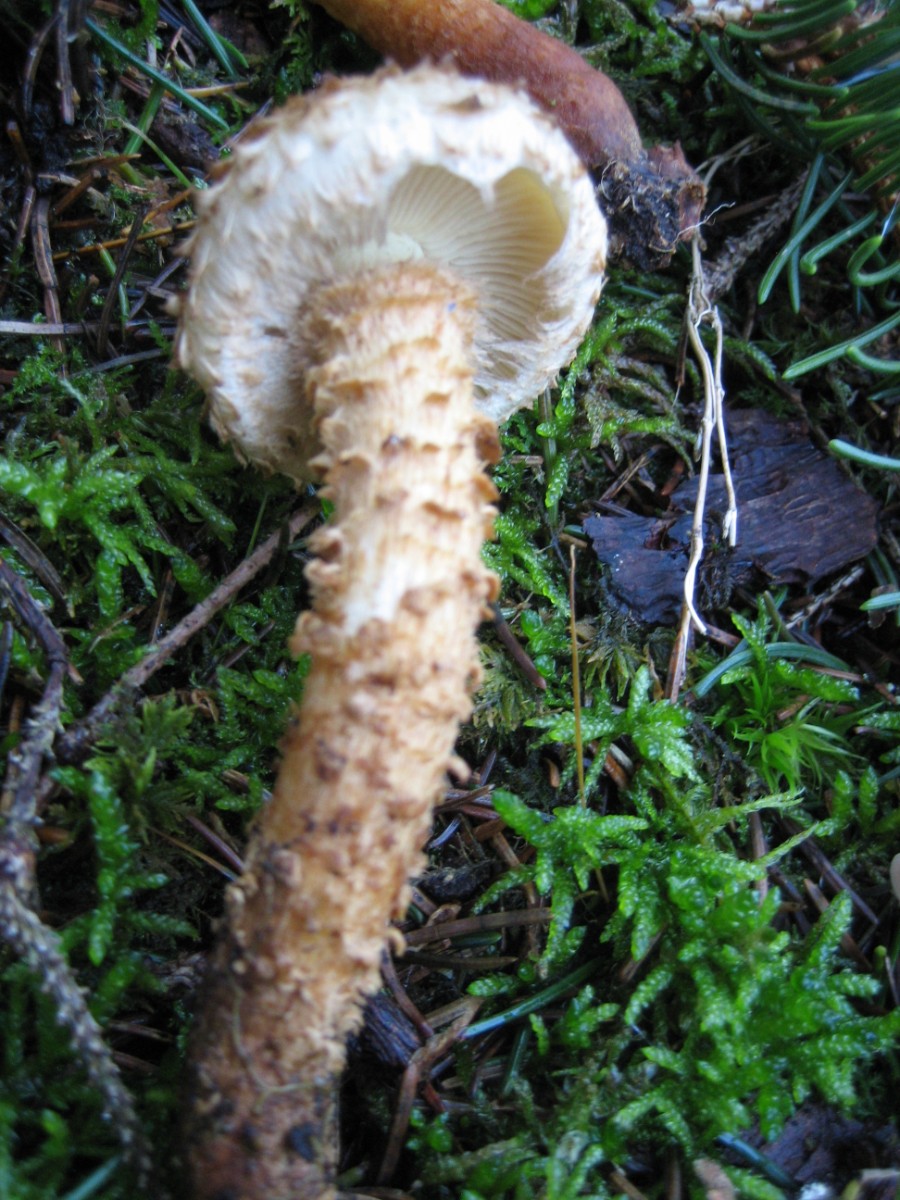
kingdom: Fungi
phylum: Basidiomycota
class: Agaricomycetes
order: Agaricales
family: Strophariaceae
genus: Pholiota
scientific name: Pholiota squarrosa
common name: krumskællet skælhat
